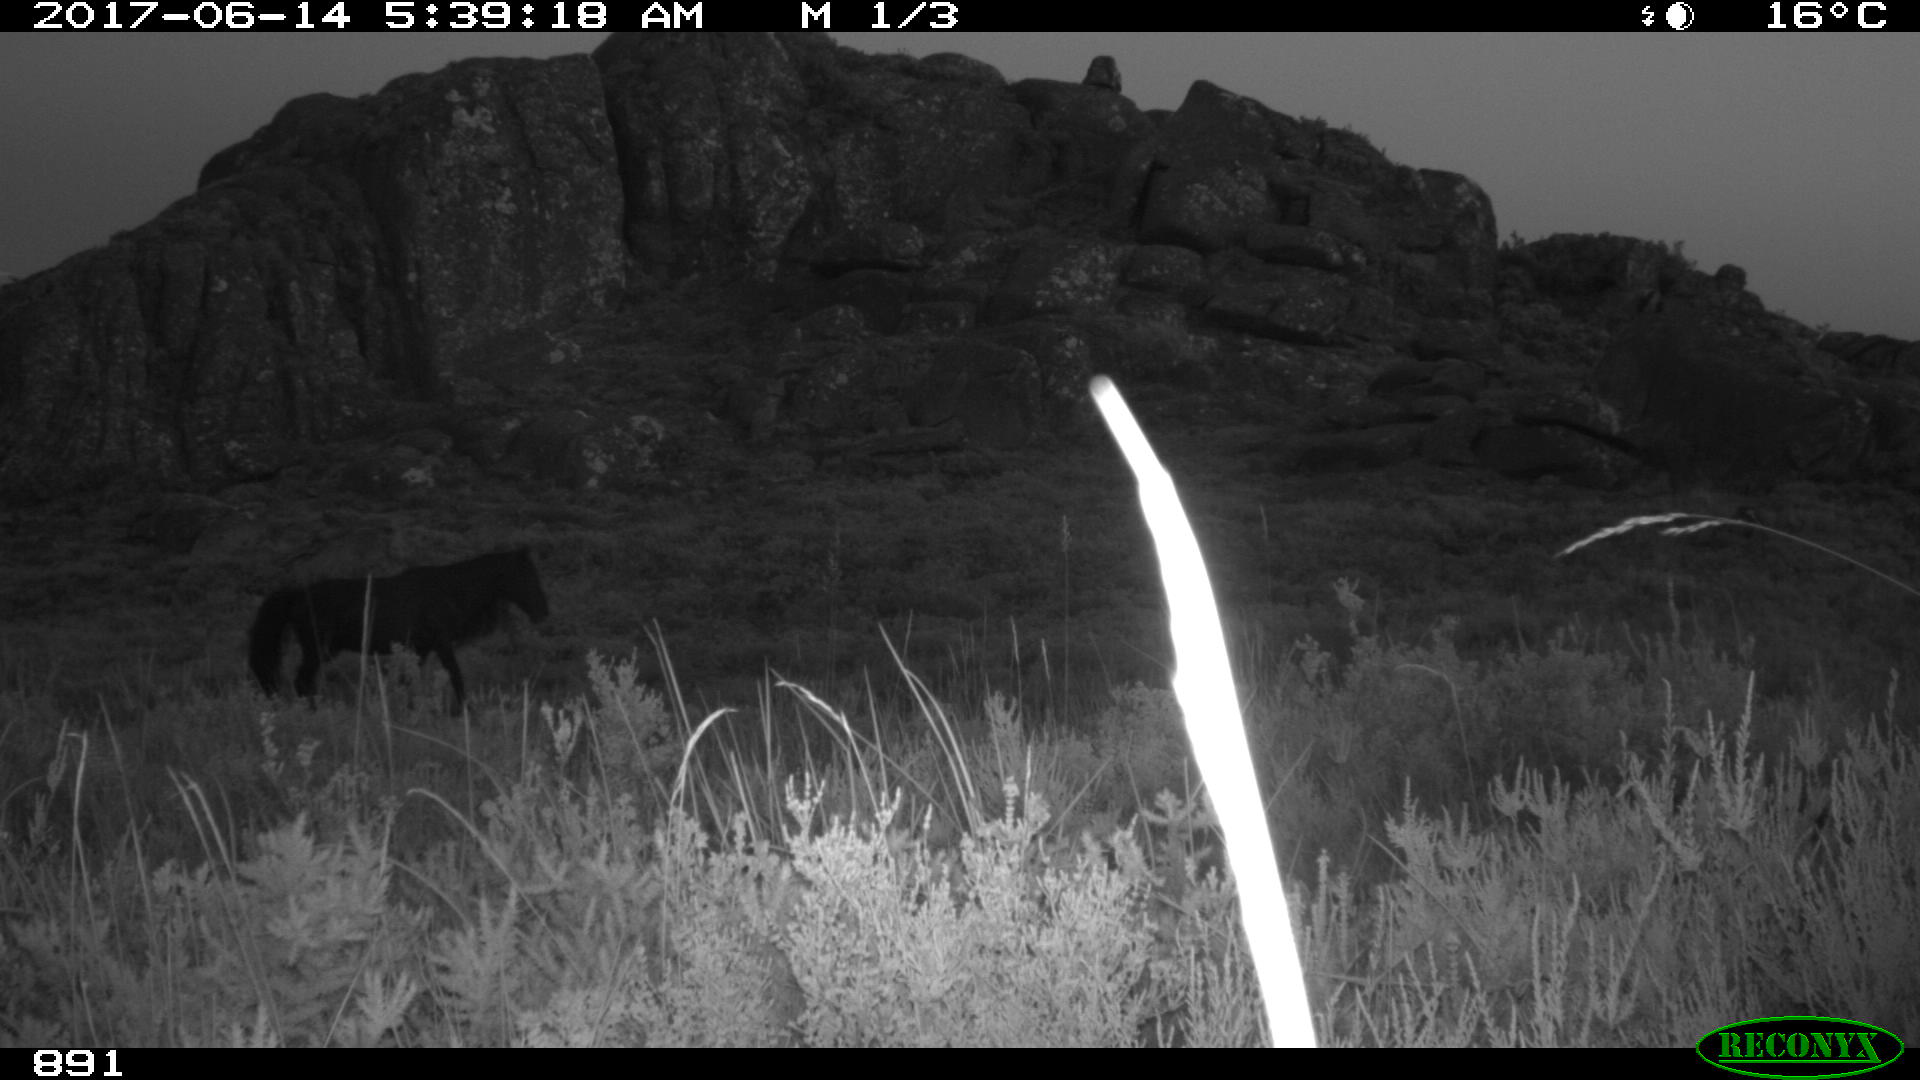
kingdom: Animalia
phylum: Chordata
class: Mammalia
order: Perissodactyla
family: Equidae
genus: Equus
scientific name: Equus caballus
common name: Horse
